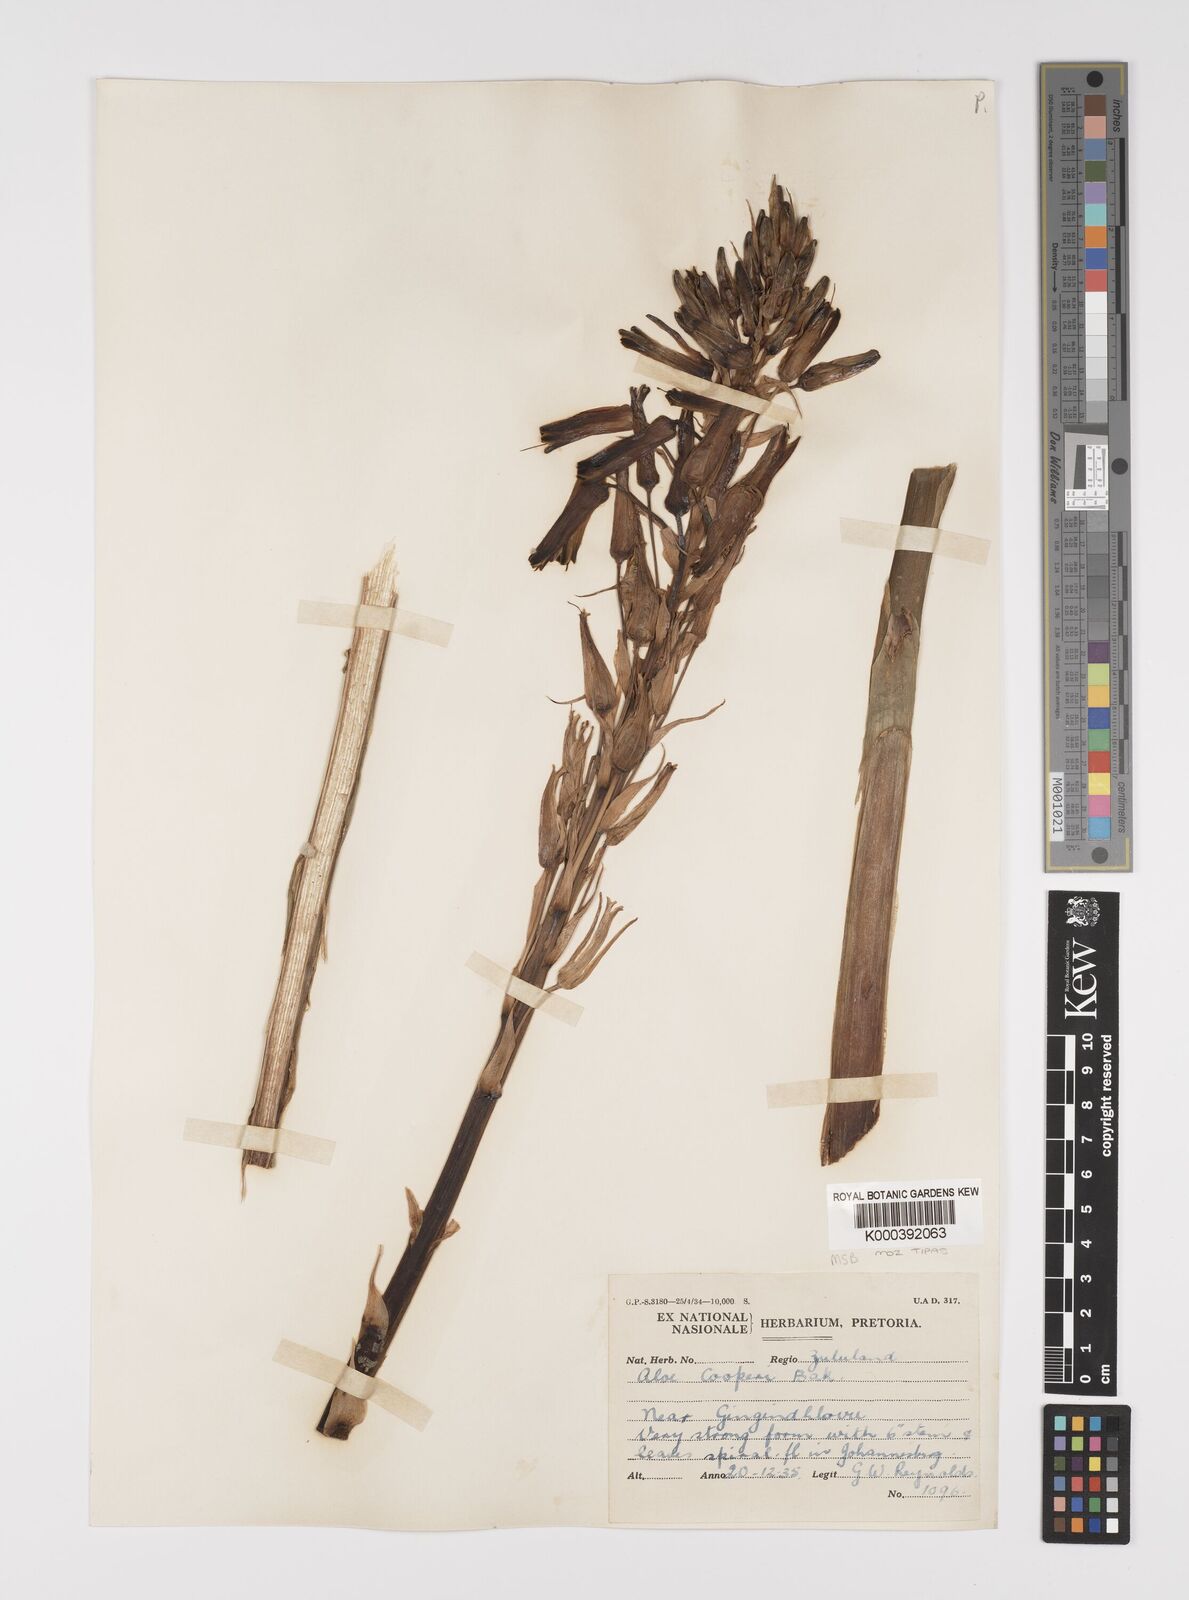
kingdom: Plantae
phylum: Tracheophyta
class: Liliopsida
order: Asparagales
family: Asphodelaceae
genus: Aloe
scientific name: Aloe cooperi
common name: Cooper's aloe
